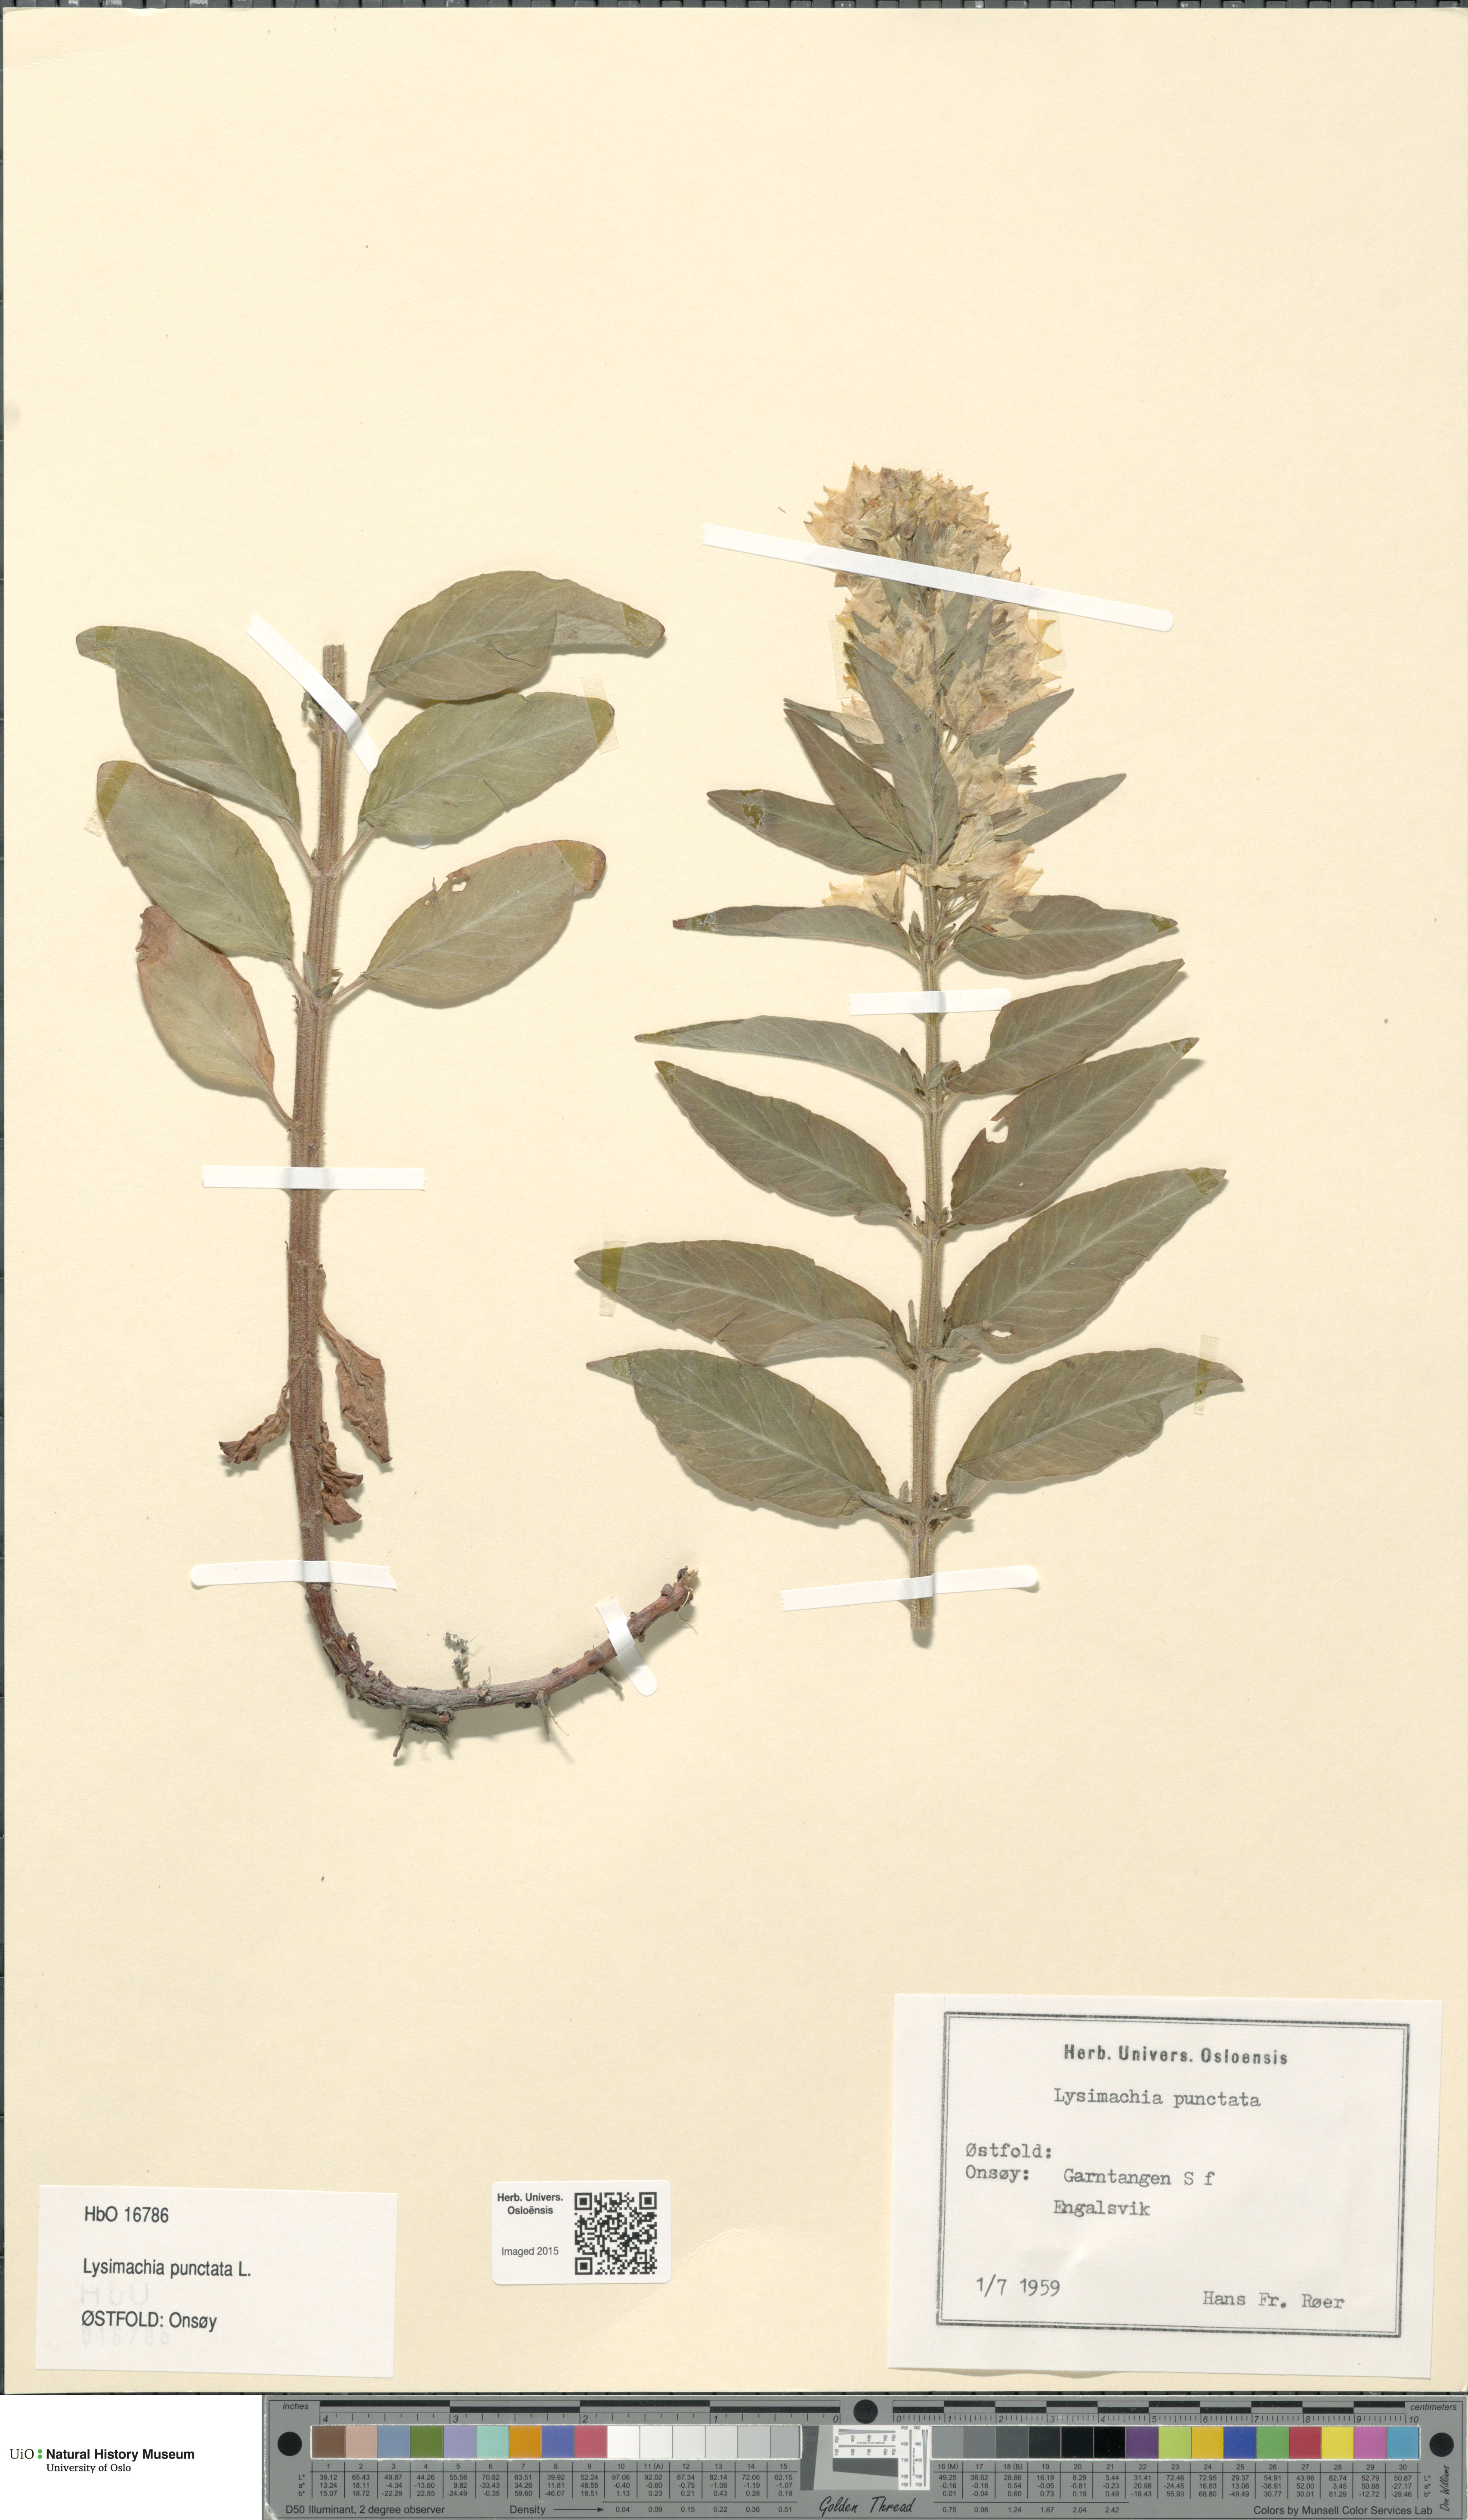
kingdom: Plantae
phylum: Tracheophyta
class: Magnoliopsida
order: Ericales
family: Primulaceae
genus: Lysimachia
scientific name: Lysimachia punctata
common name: Dotted loosestrife
